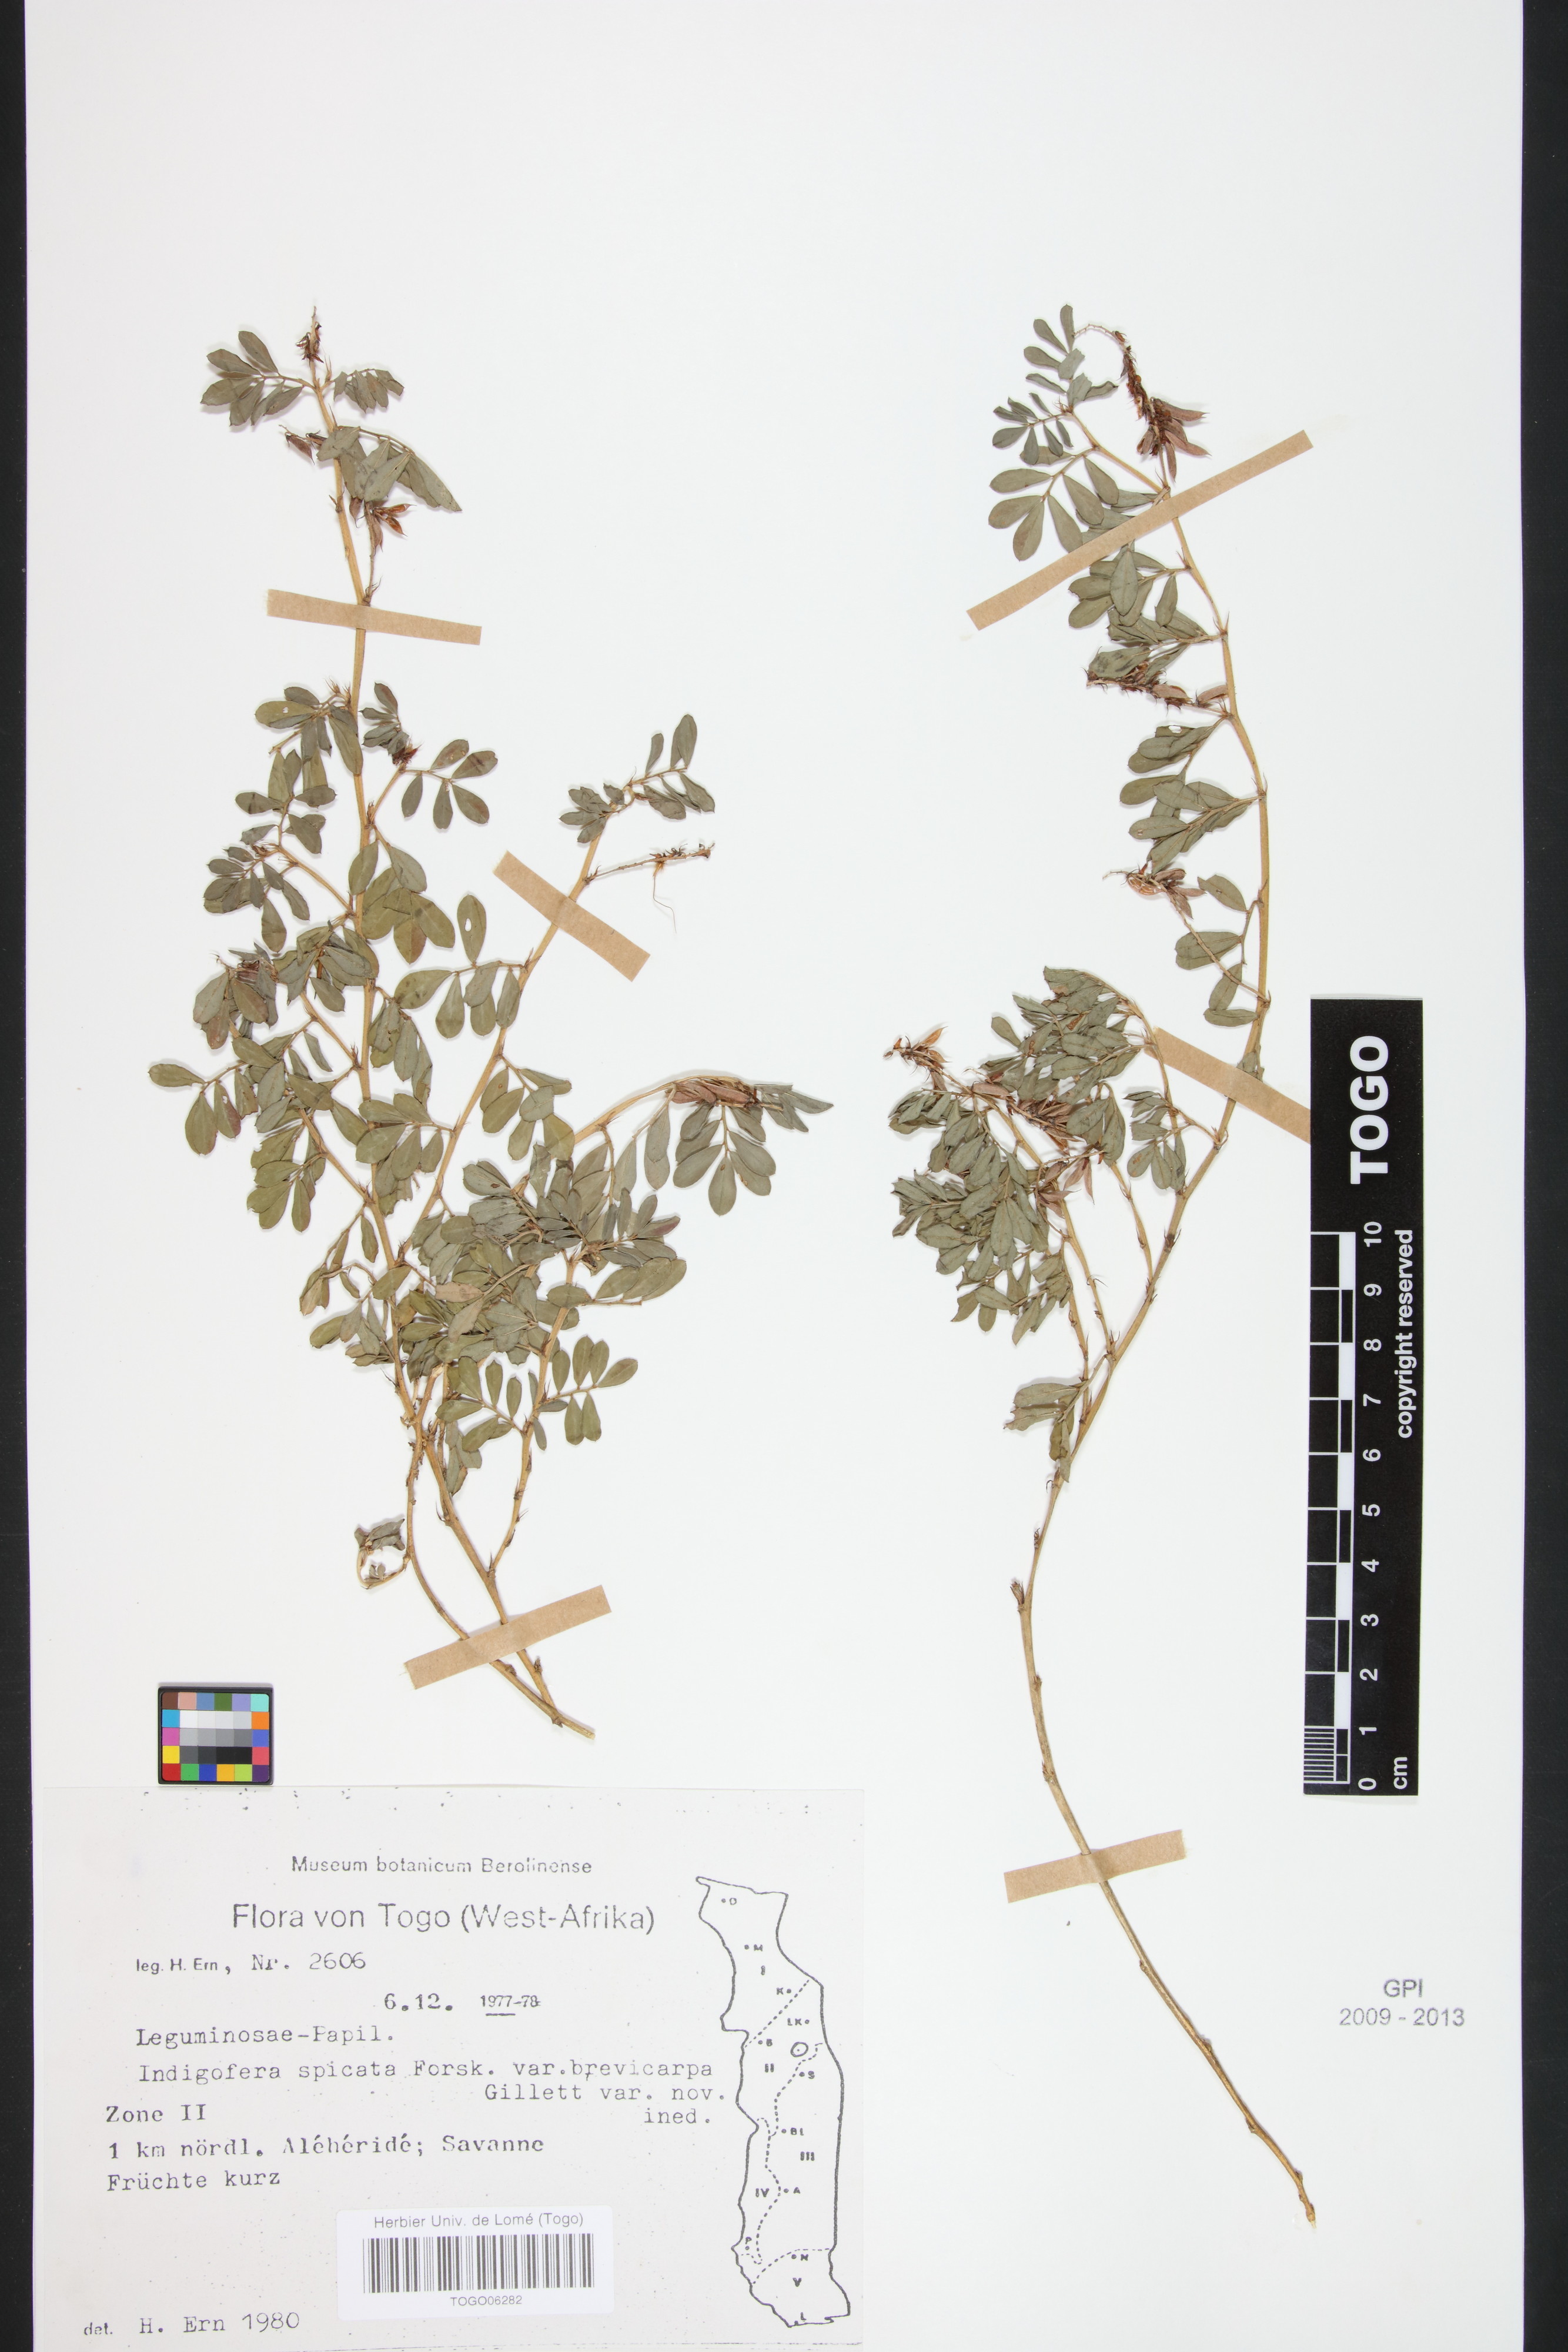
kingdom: Plantae
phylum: Tracheophyta
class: Magnoliopsida
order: Fabales
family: Fabaceae
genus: Indigofera
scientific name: Indigofera spicata
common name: Creeping indigo
